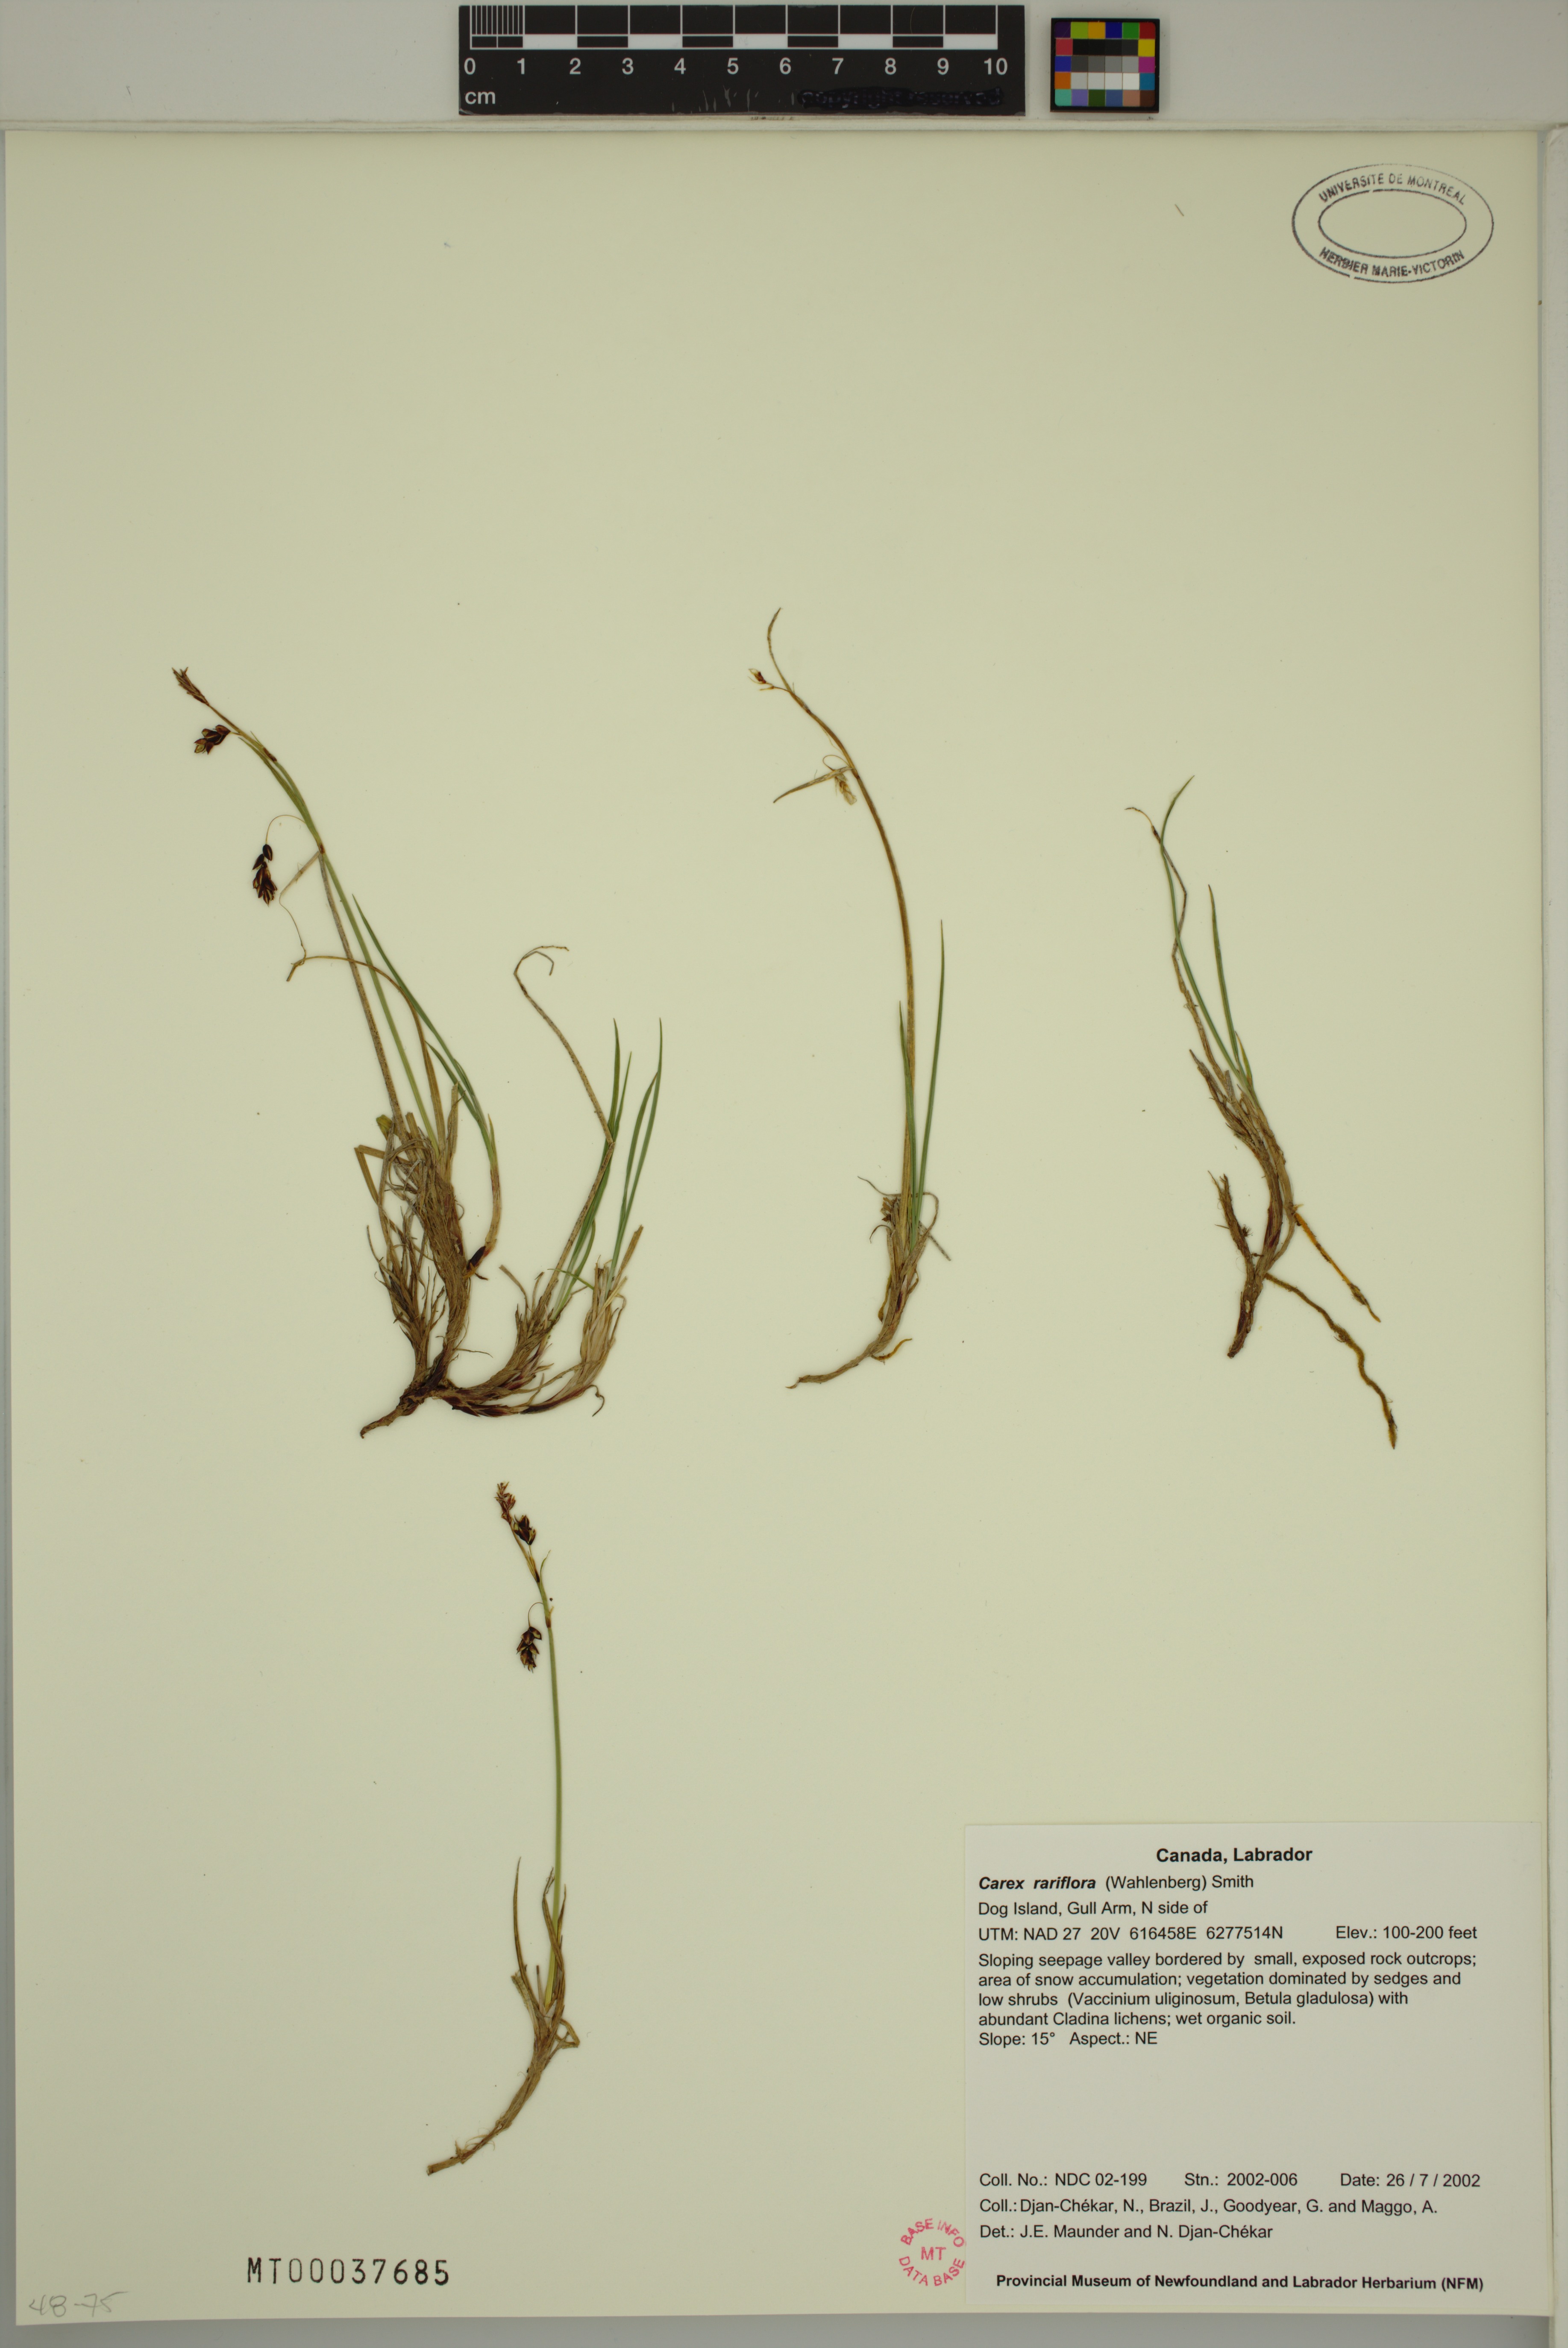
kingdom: Plantae
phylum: Tracheophyta
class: Liliopsida
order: Poales
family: Cyperaceae
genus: Carex
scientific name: Carex rariflora
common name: Loose-flowered alpine sedge
